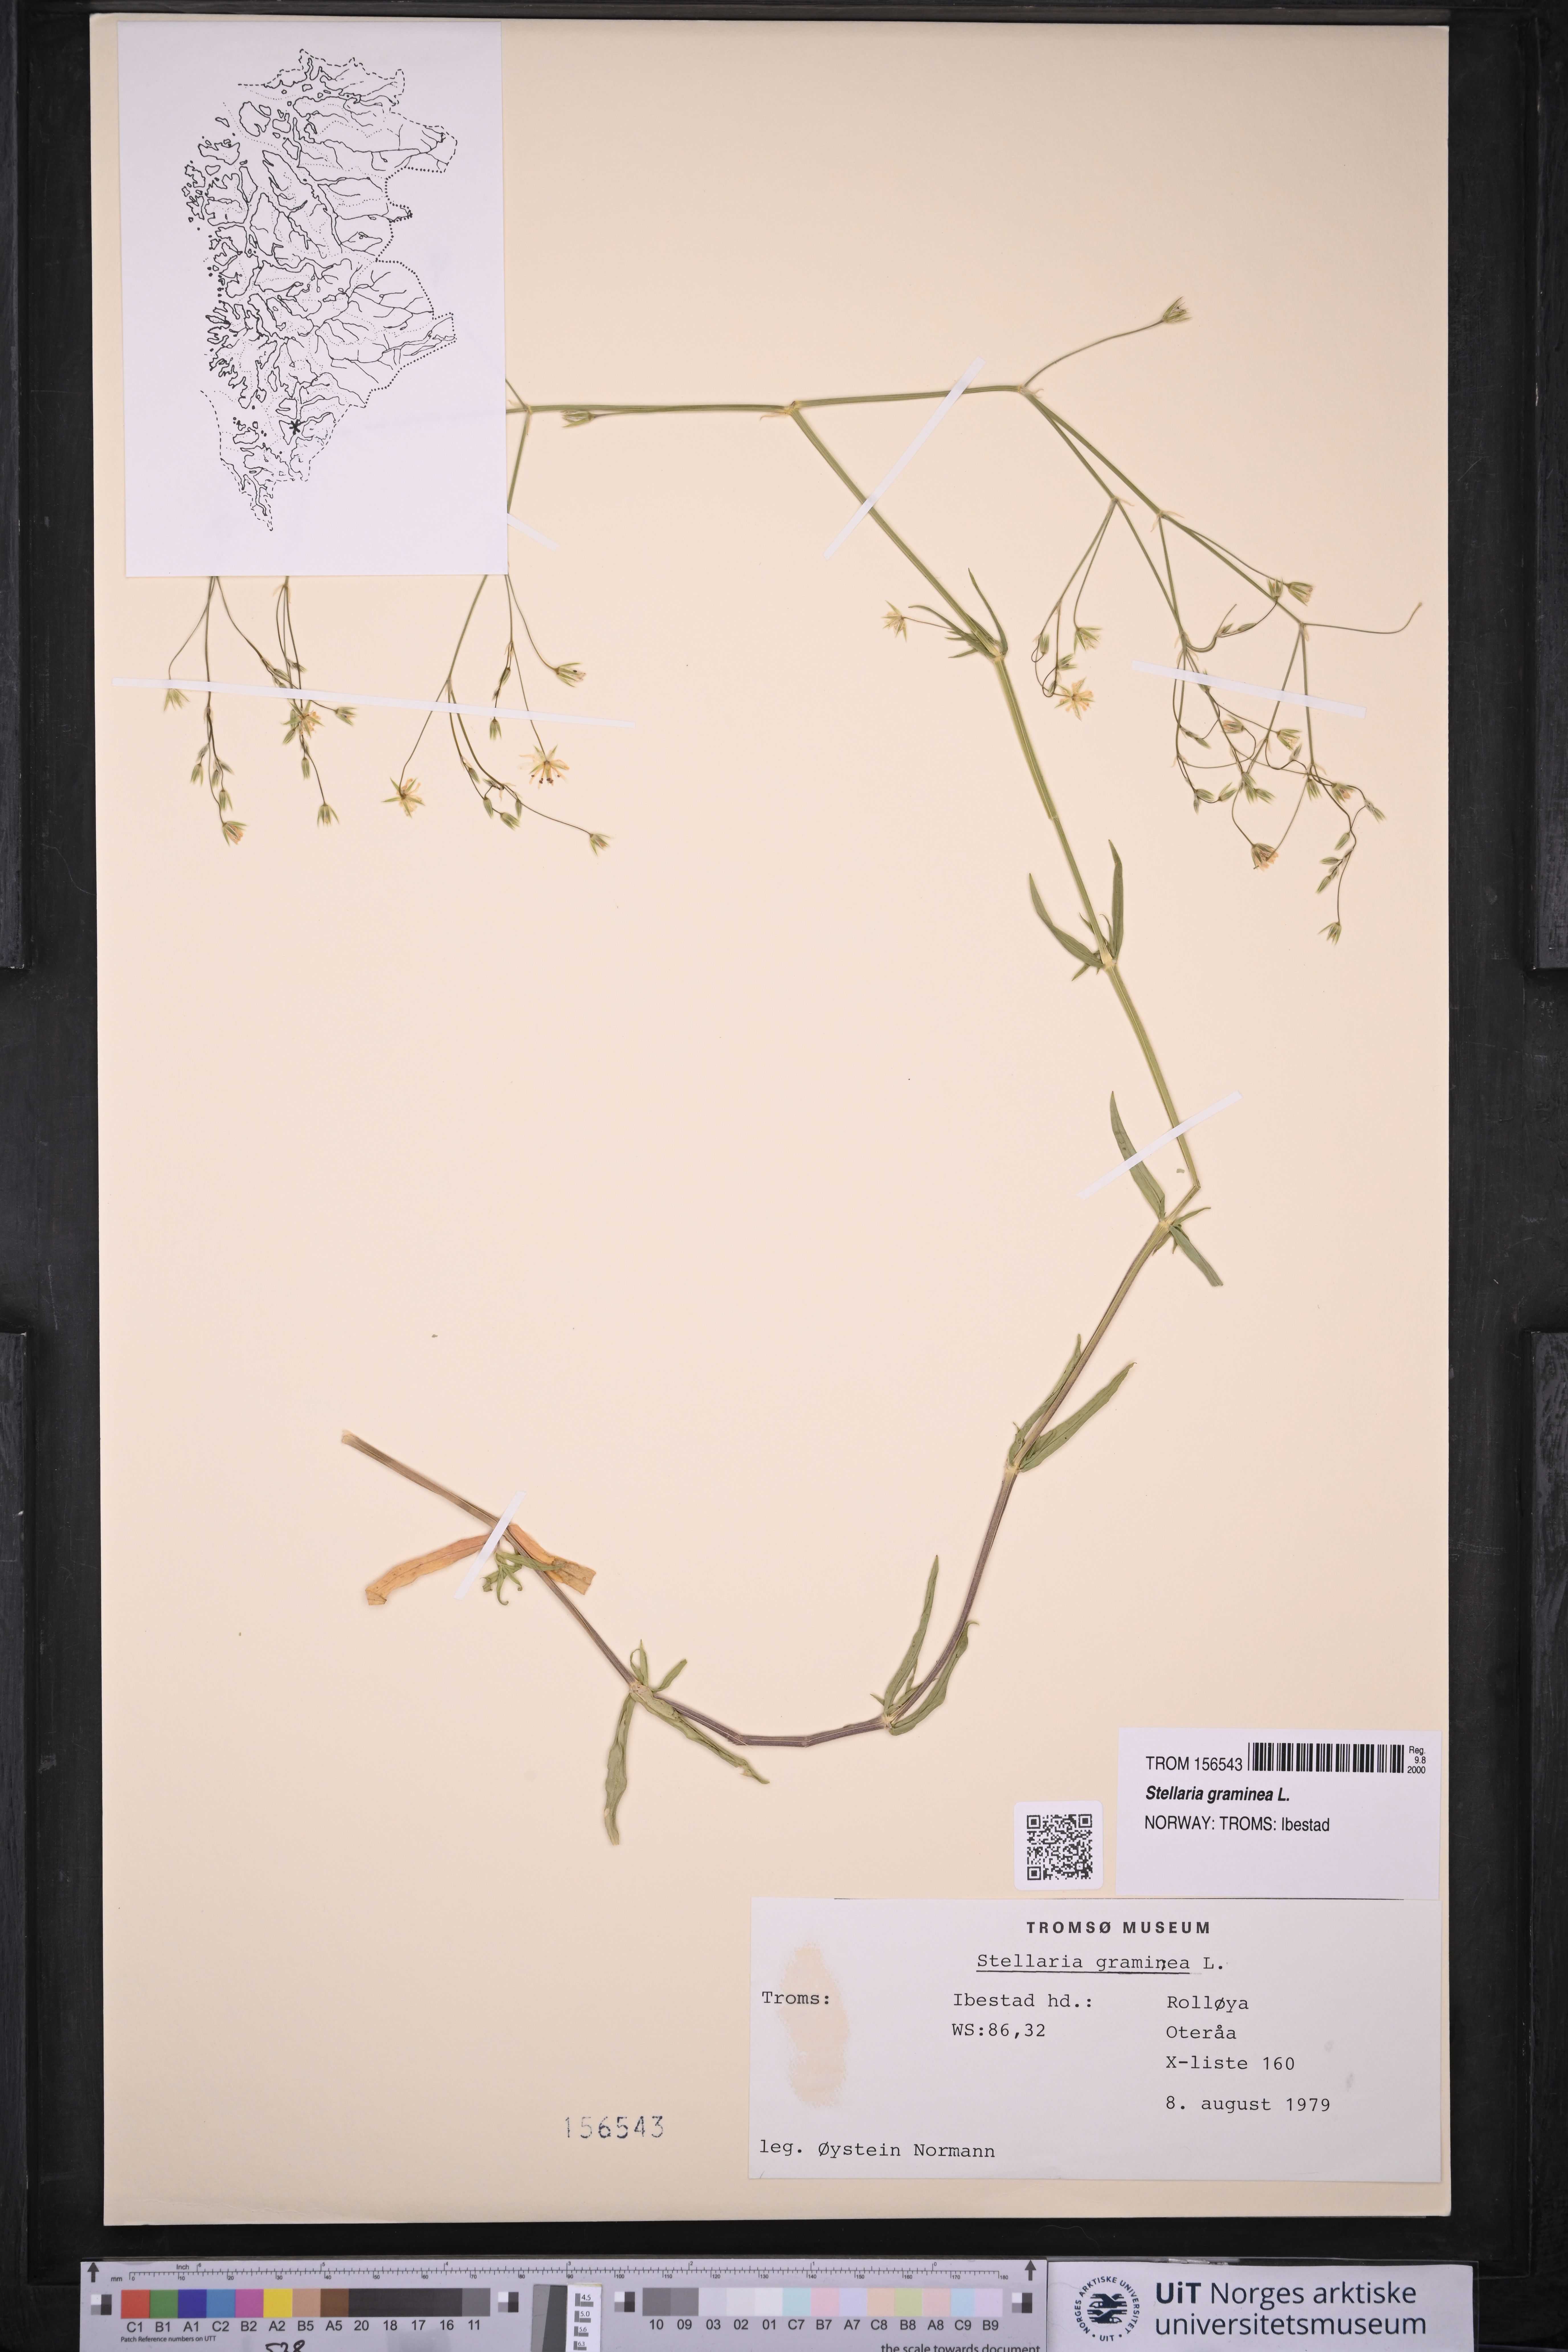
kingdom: Plantae
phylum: Tracheophyta
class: Magnoliopsida
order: Caryophyllales
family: Caryophyllaceae
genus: Stellaria
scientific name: Stellaria graminea
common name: Grass-like starwort
